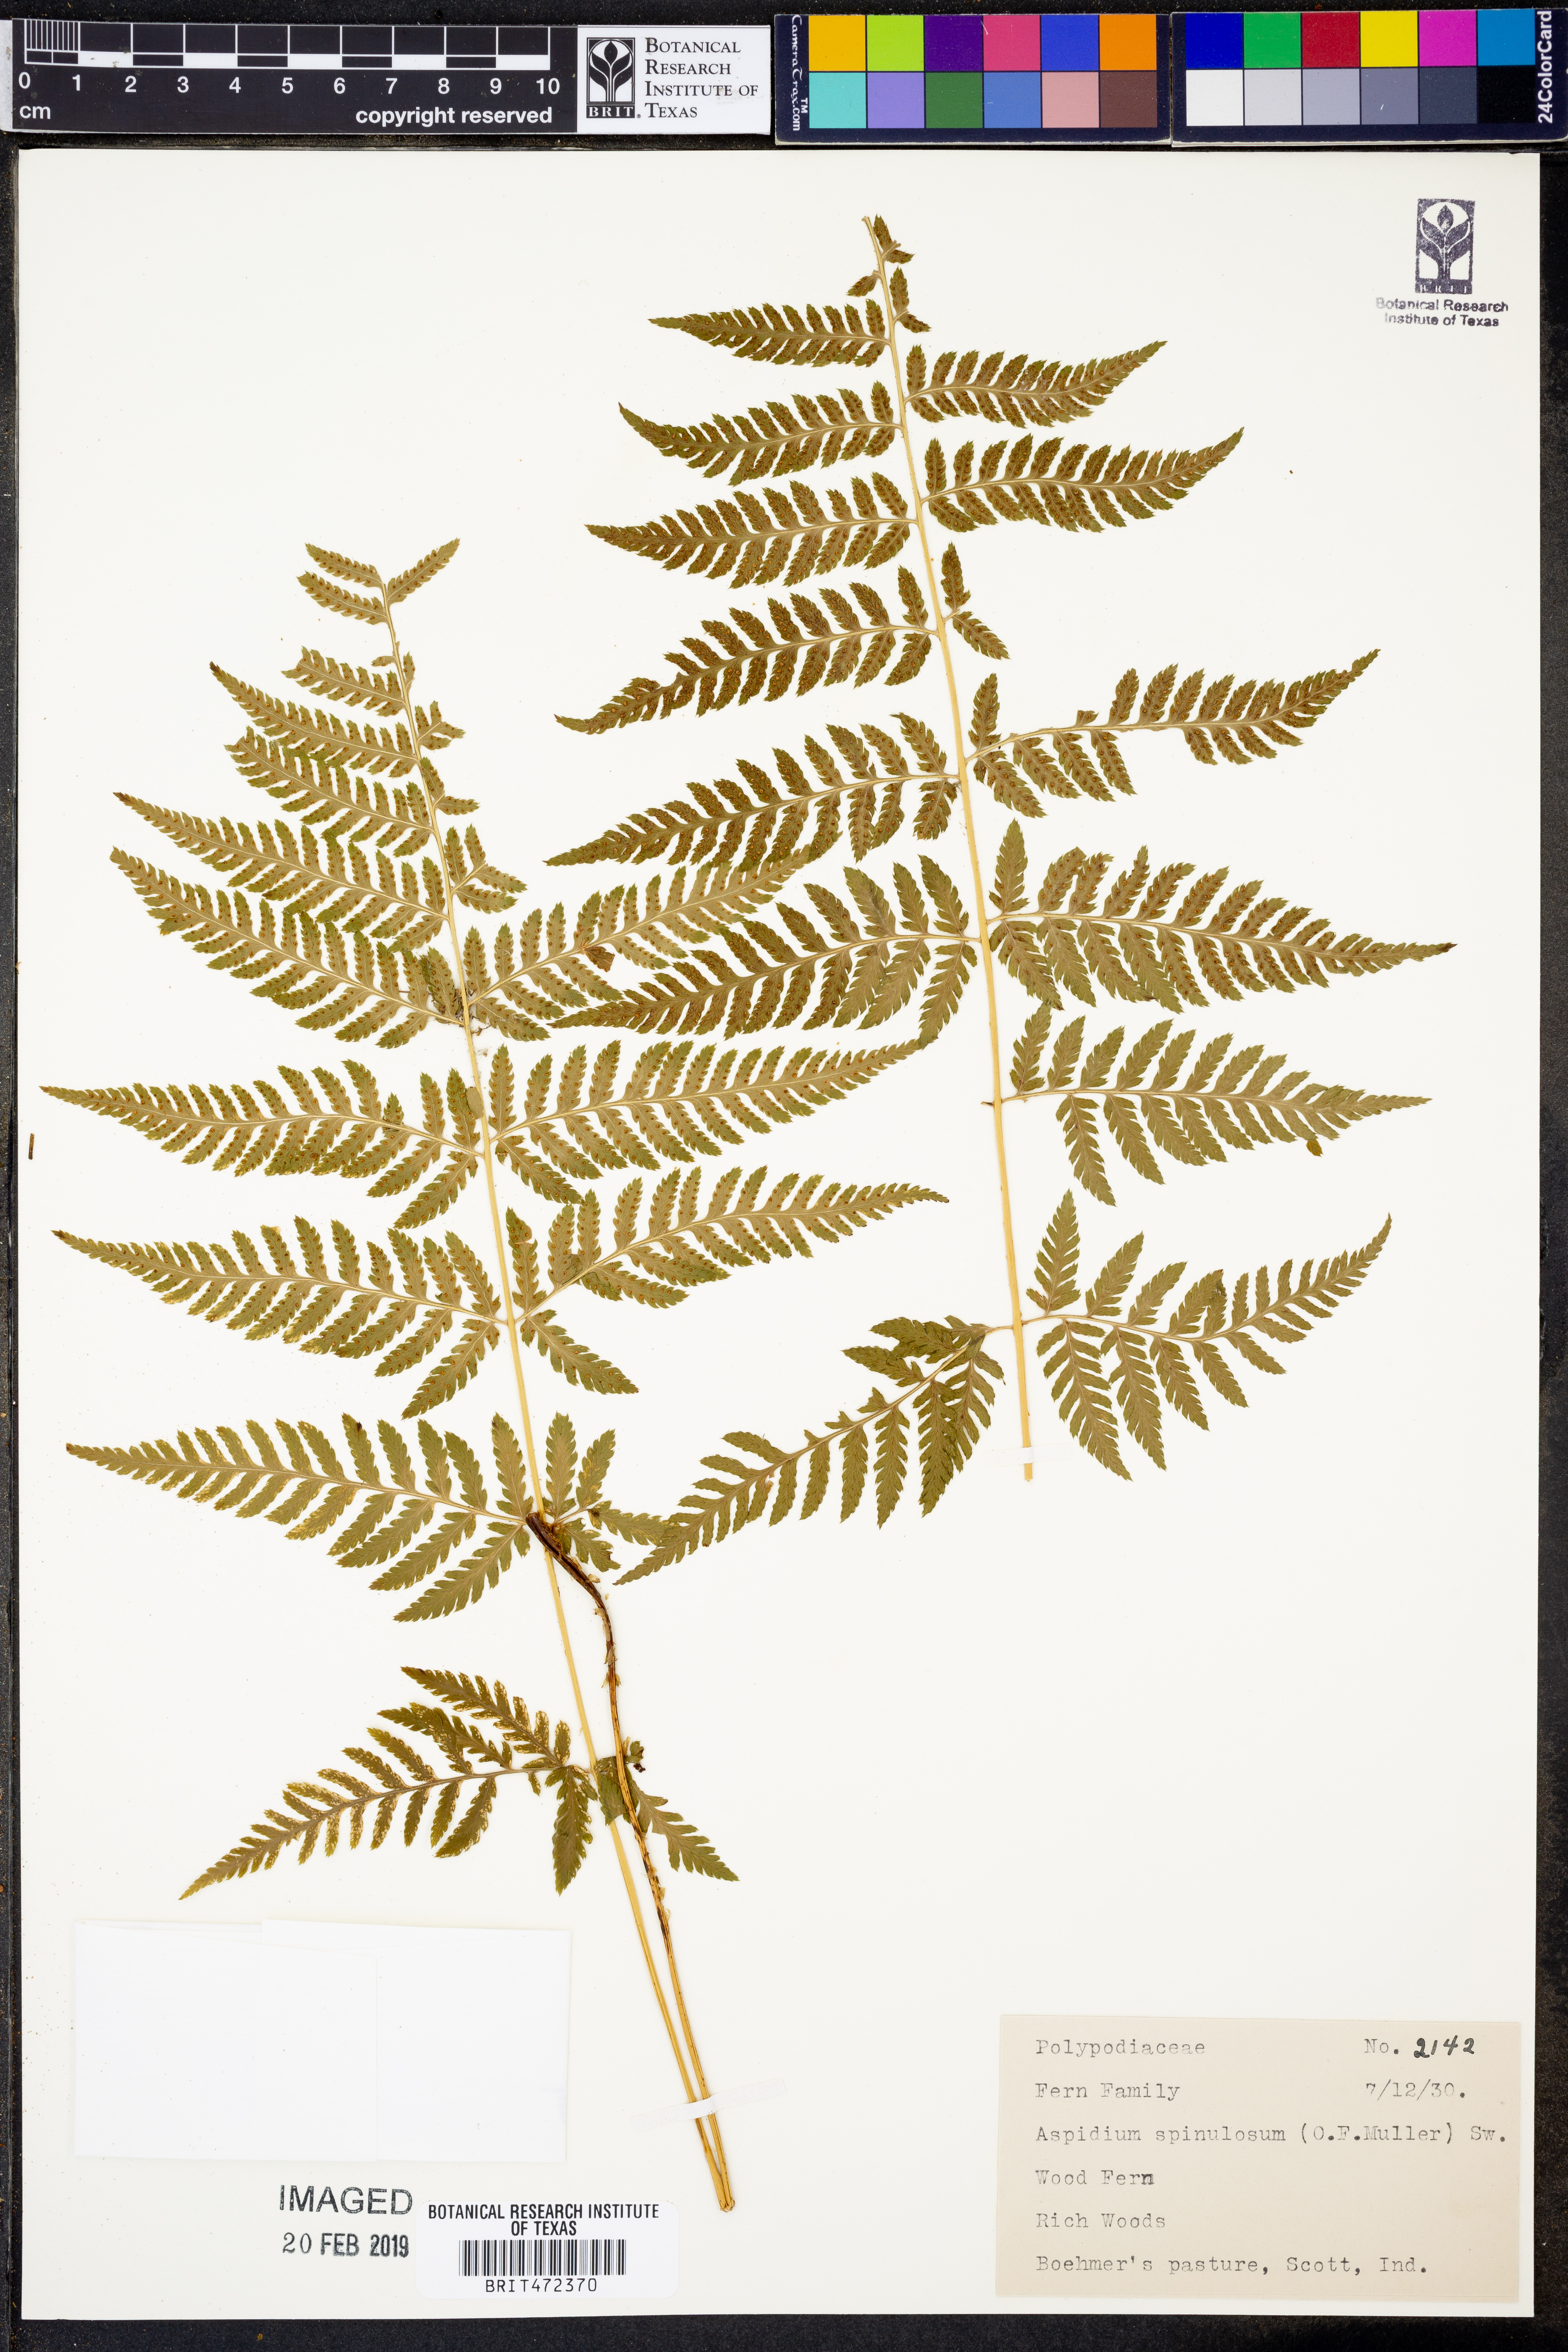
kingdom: Plantae
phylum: Tracheophyta
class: Polypodiopsida
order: Polypodiales
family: Dryopteridaceae
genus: Dryopteris
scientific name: Dryopteris
